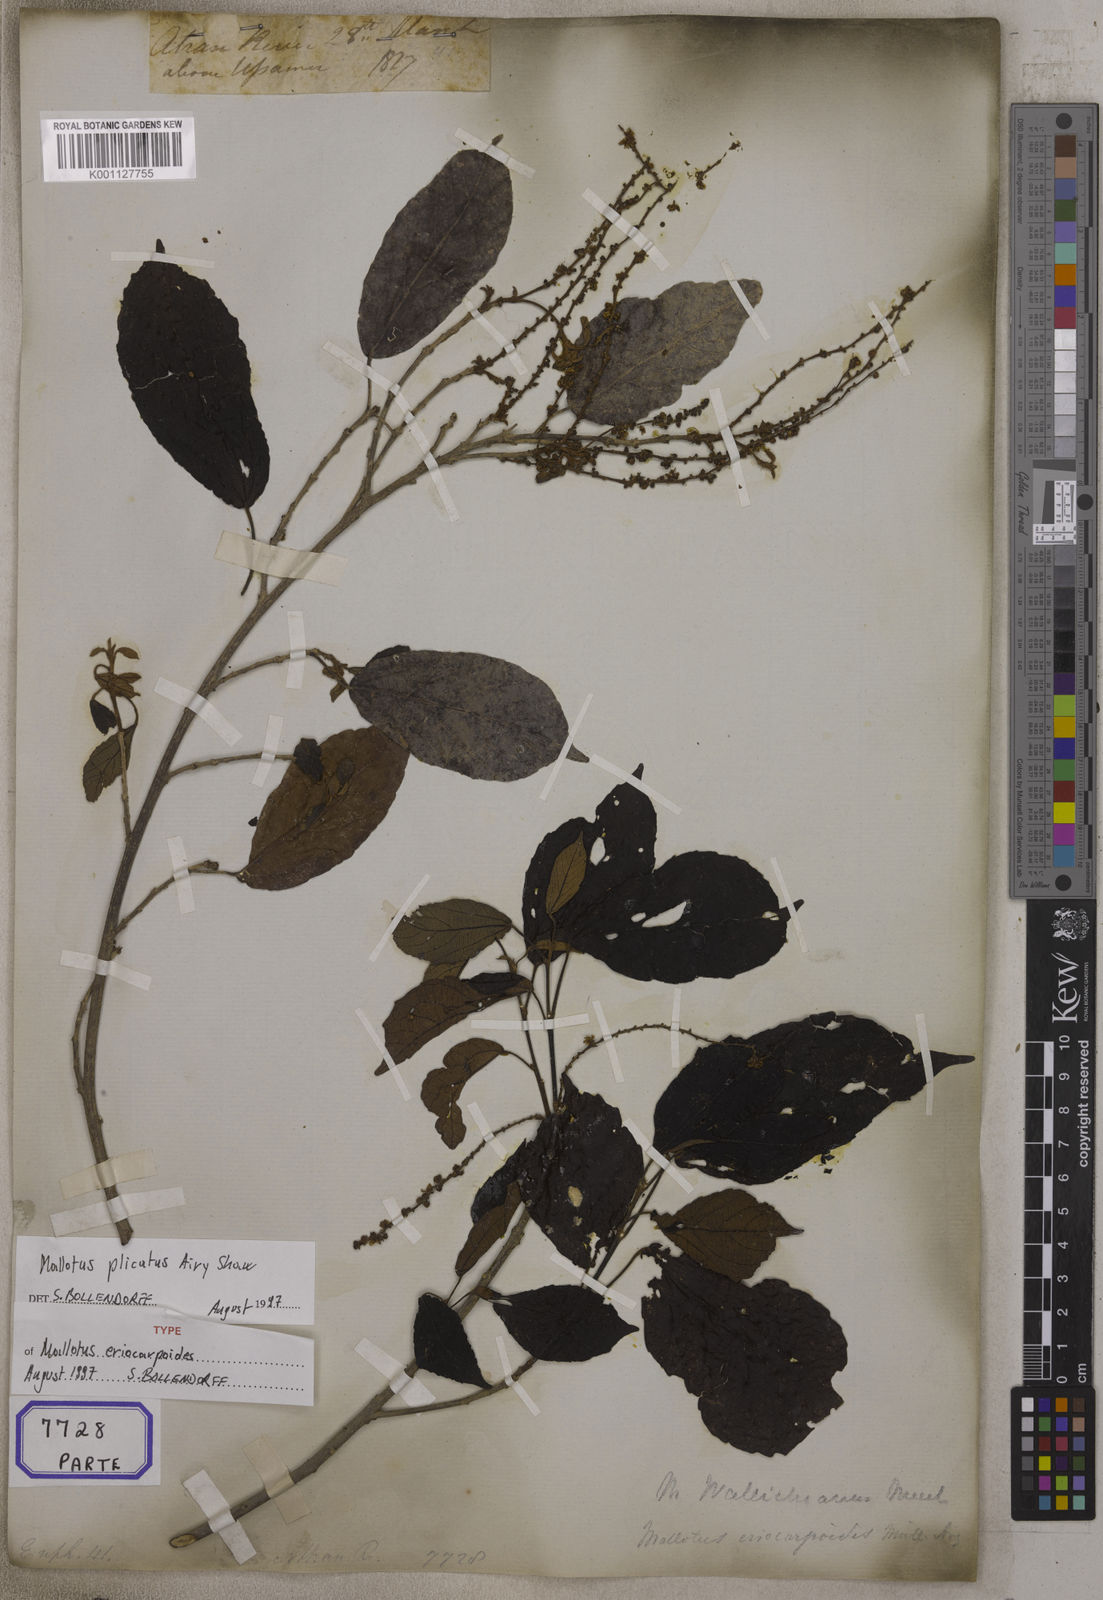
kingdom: Plantae
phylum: Tracheophyta
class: Magnoliopsida
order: Malpighiales
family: Euphorbiaceae
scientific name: Euphorbiaceae
